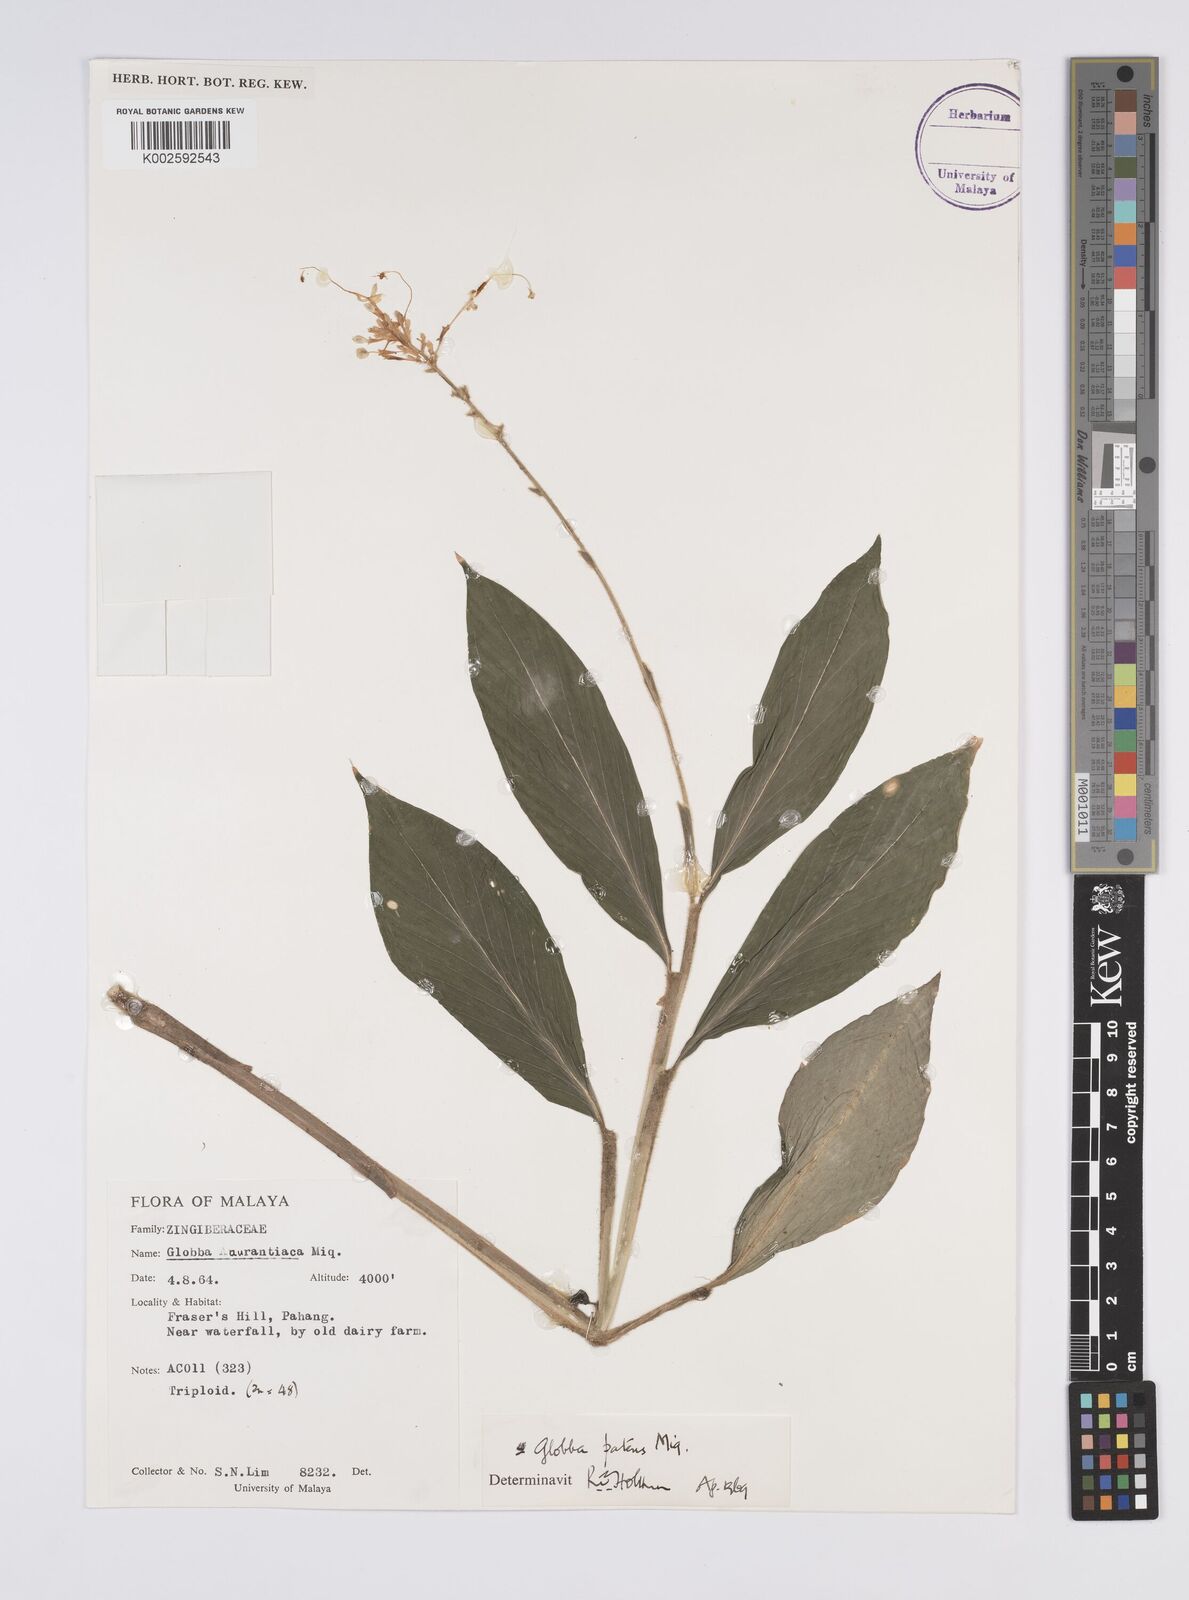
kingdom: Plantae
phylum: Tracheophyta
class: Liliopsida
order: Zingiberales
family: Zingiberaceae
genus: Globba
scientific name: Globba patens
